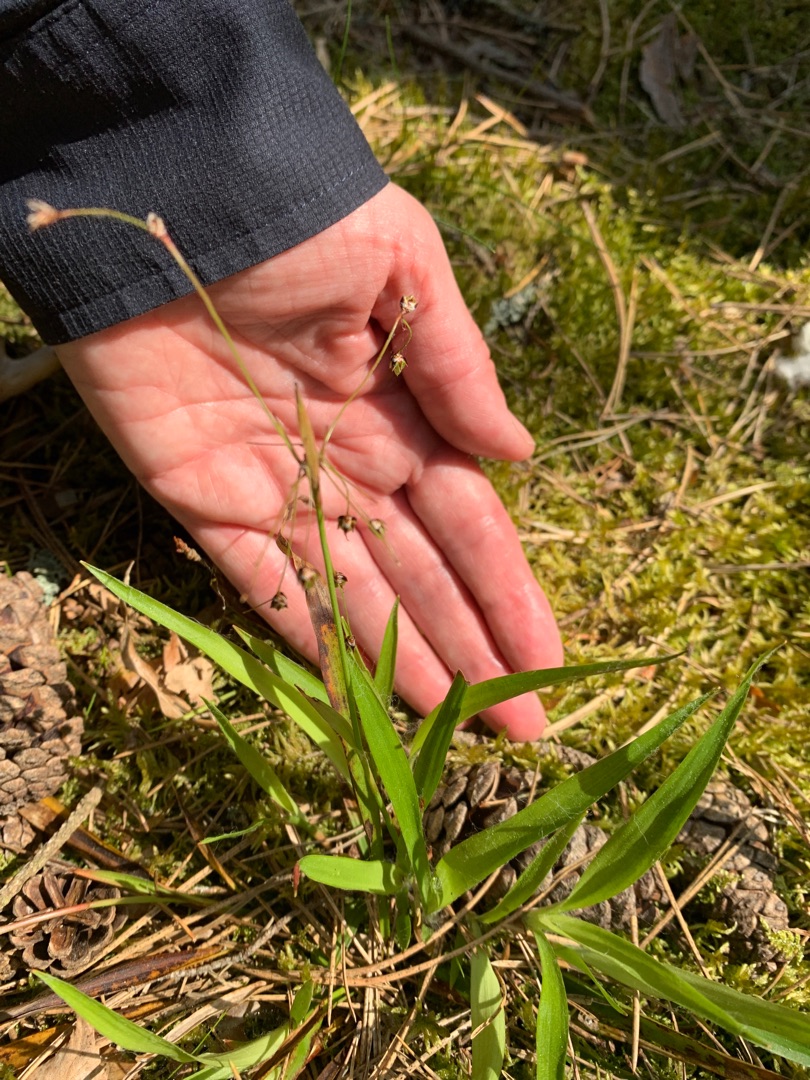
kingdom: Plantae
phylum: Tracheophyta
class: Liliopsida
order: Poales
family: Juncaceae
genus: Luzula
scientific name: Luzula pilosa
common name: Håret frytle
